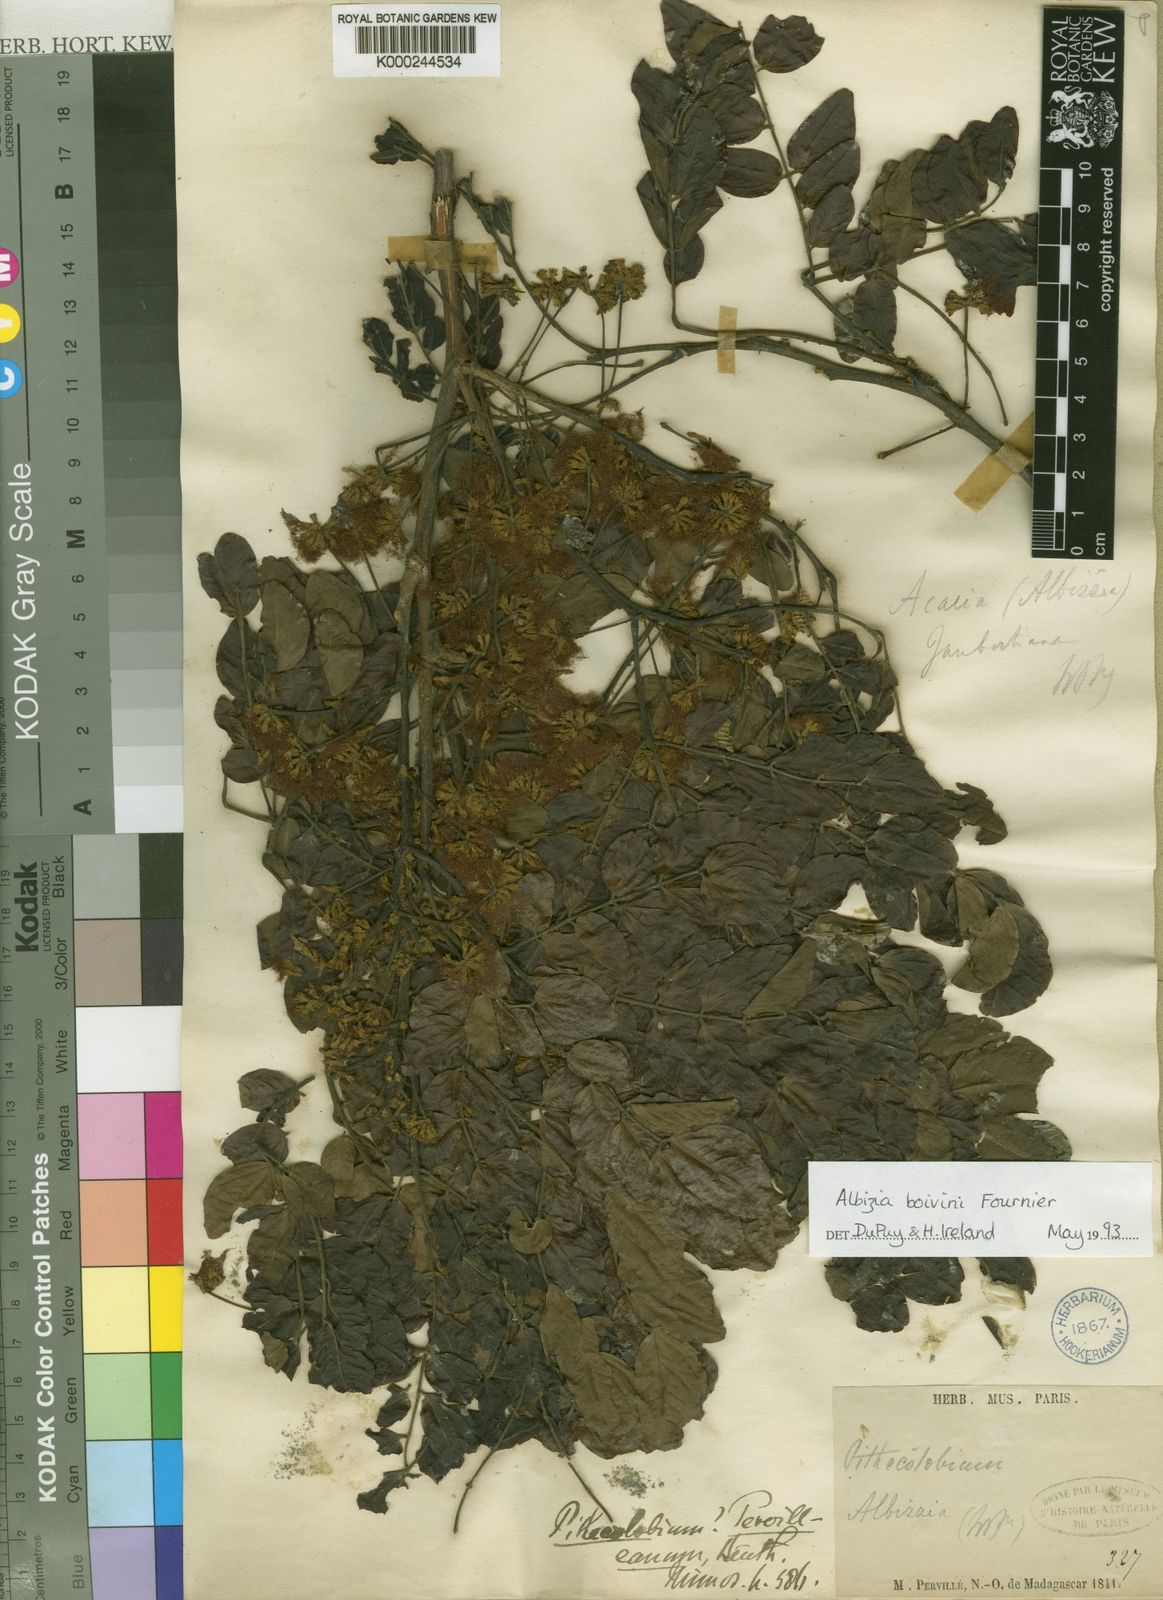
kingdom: Plantae
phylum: Tracheophyta
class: Magnoliopsida
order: Fabales
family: Fabaceae
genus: Albizia
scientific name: Albizia boivinii
